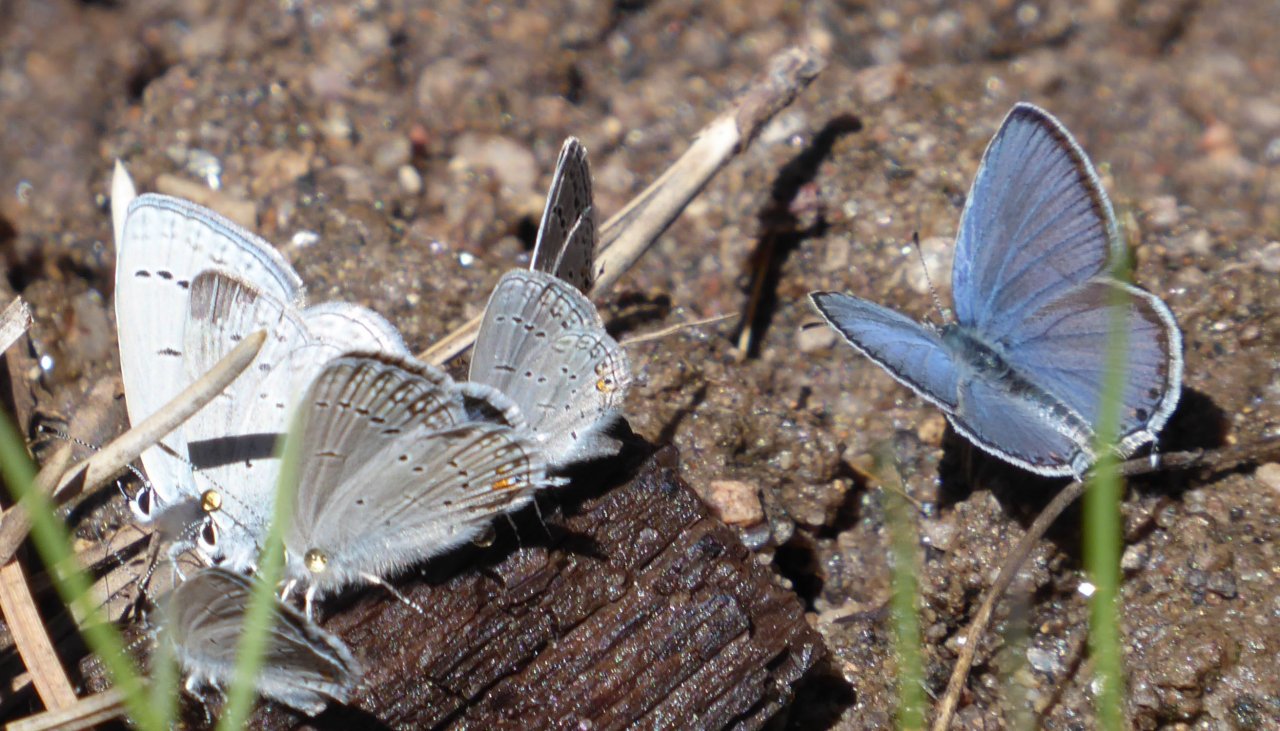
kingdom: Animalia
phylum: Arthropoda
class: Insecta
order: Lepidoptera
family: Lycaenidae
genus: Elkalyce
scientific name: Elkalyce amyntula
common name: Western Tailed-Blue
